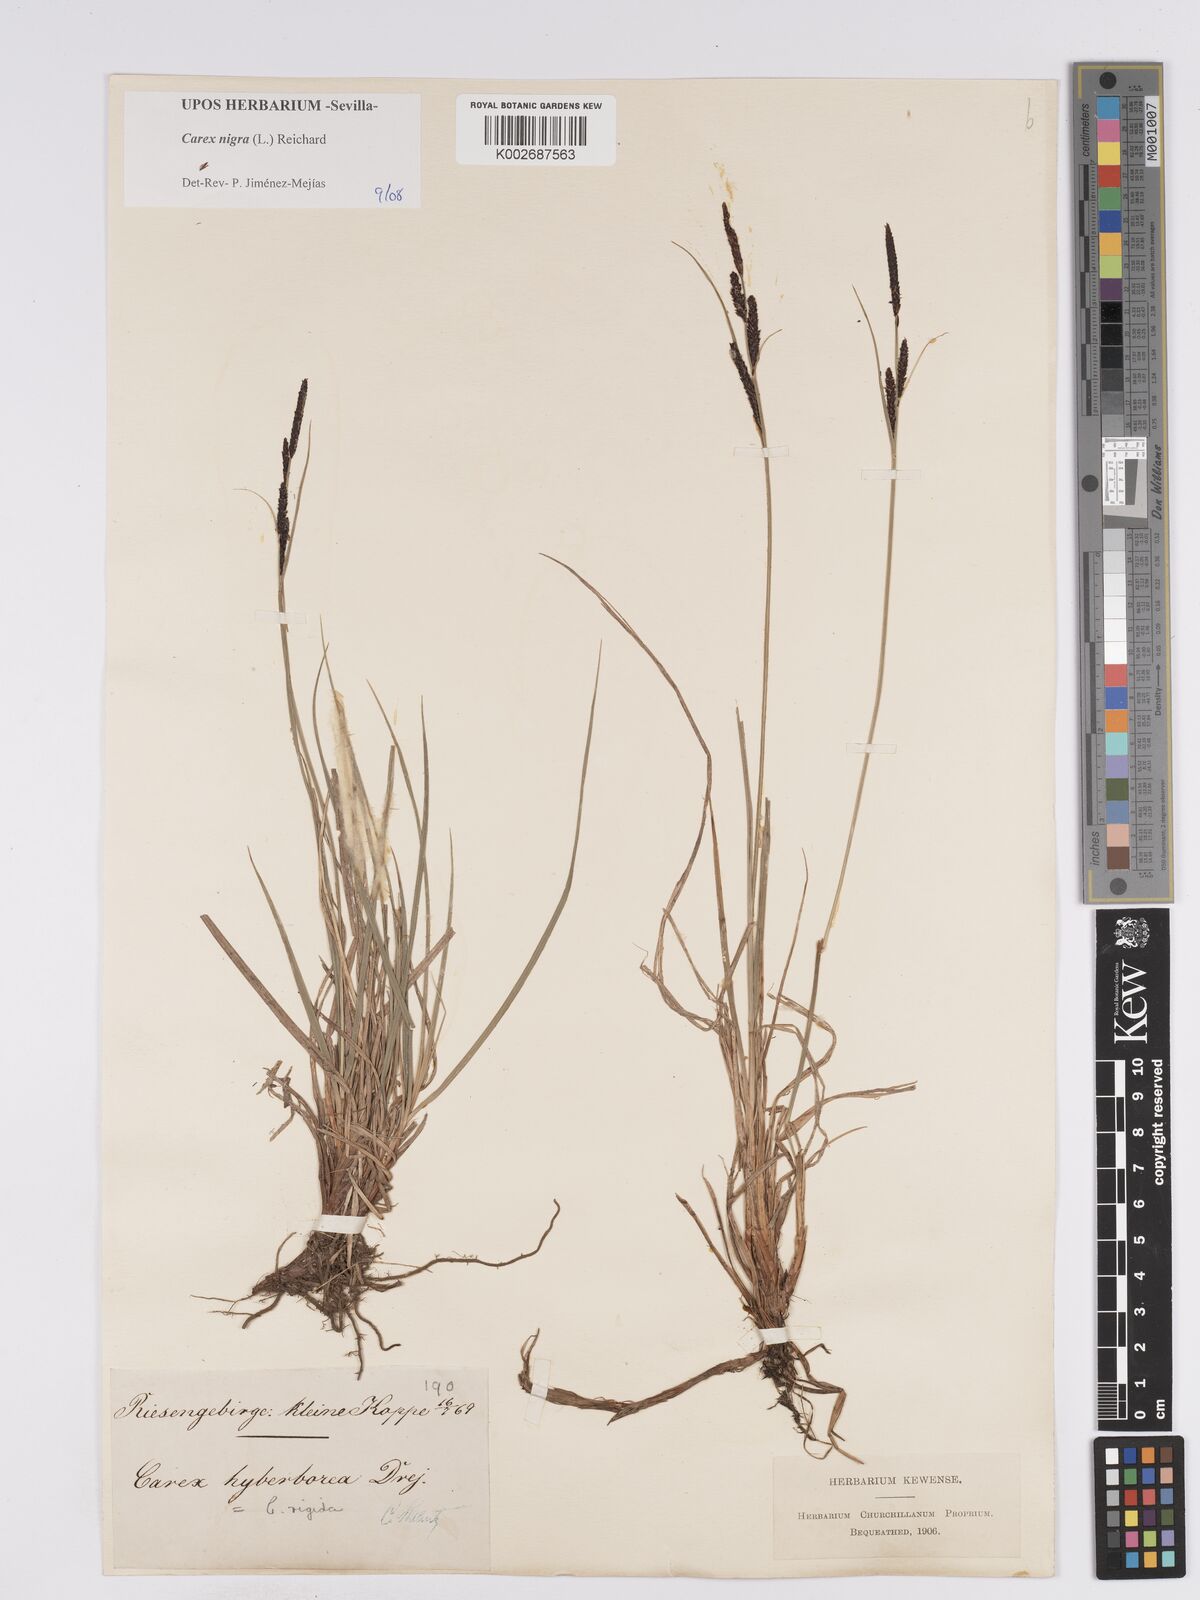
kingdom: Plantae
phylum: Tracheophyta
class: Liliopsida
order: Poales
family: Cyperaceae
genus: Carex
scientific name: Carex nigra
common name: Common sedge
